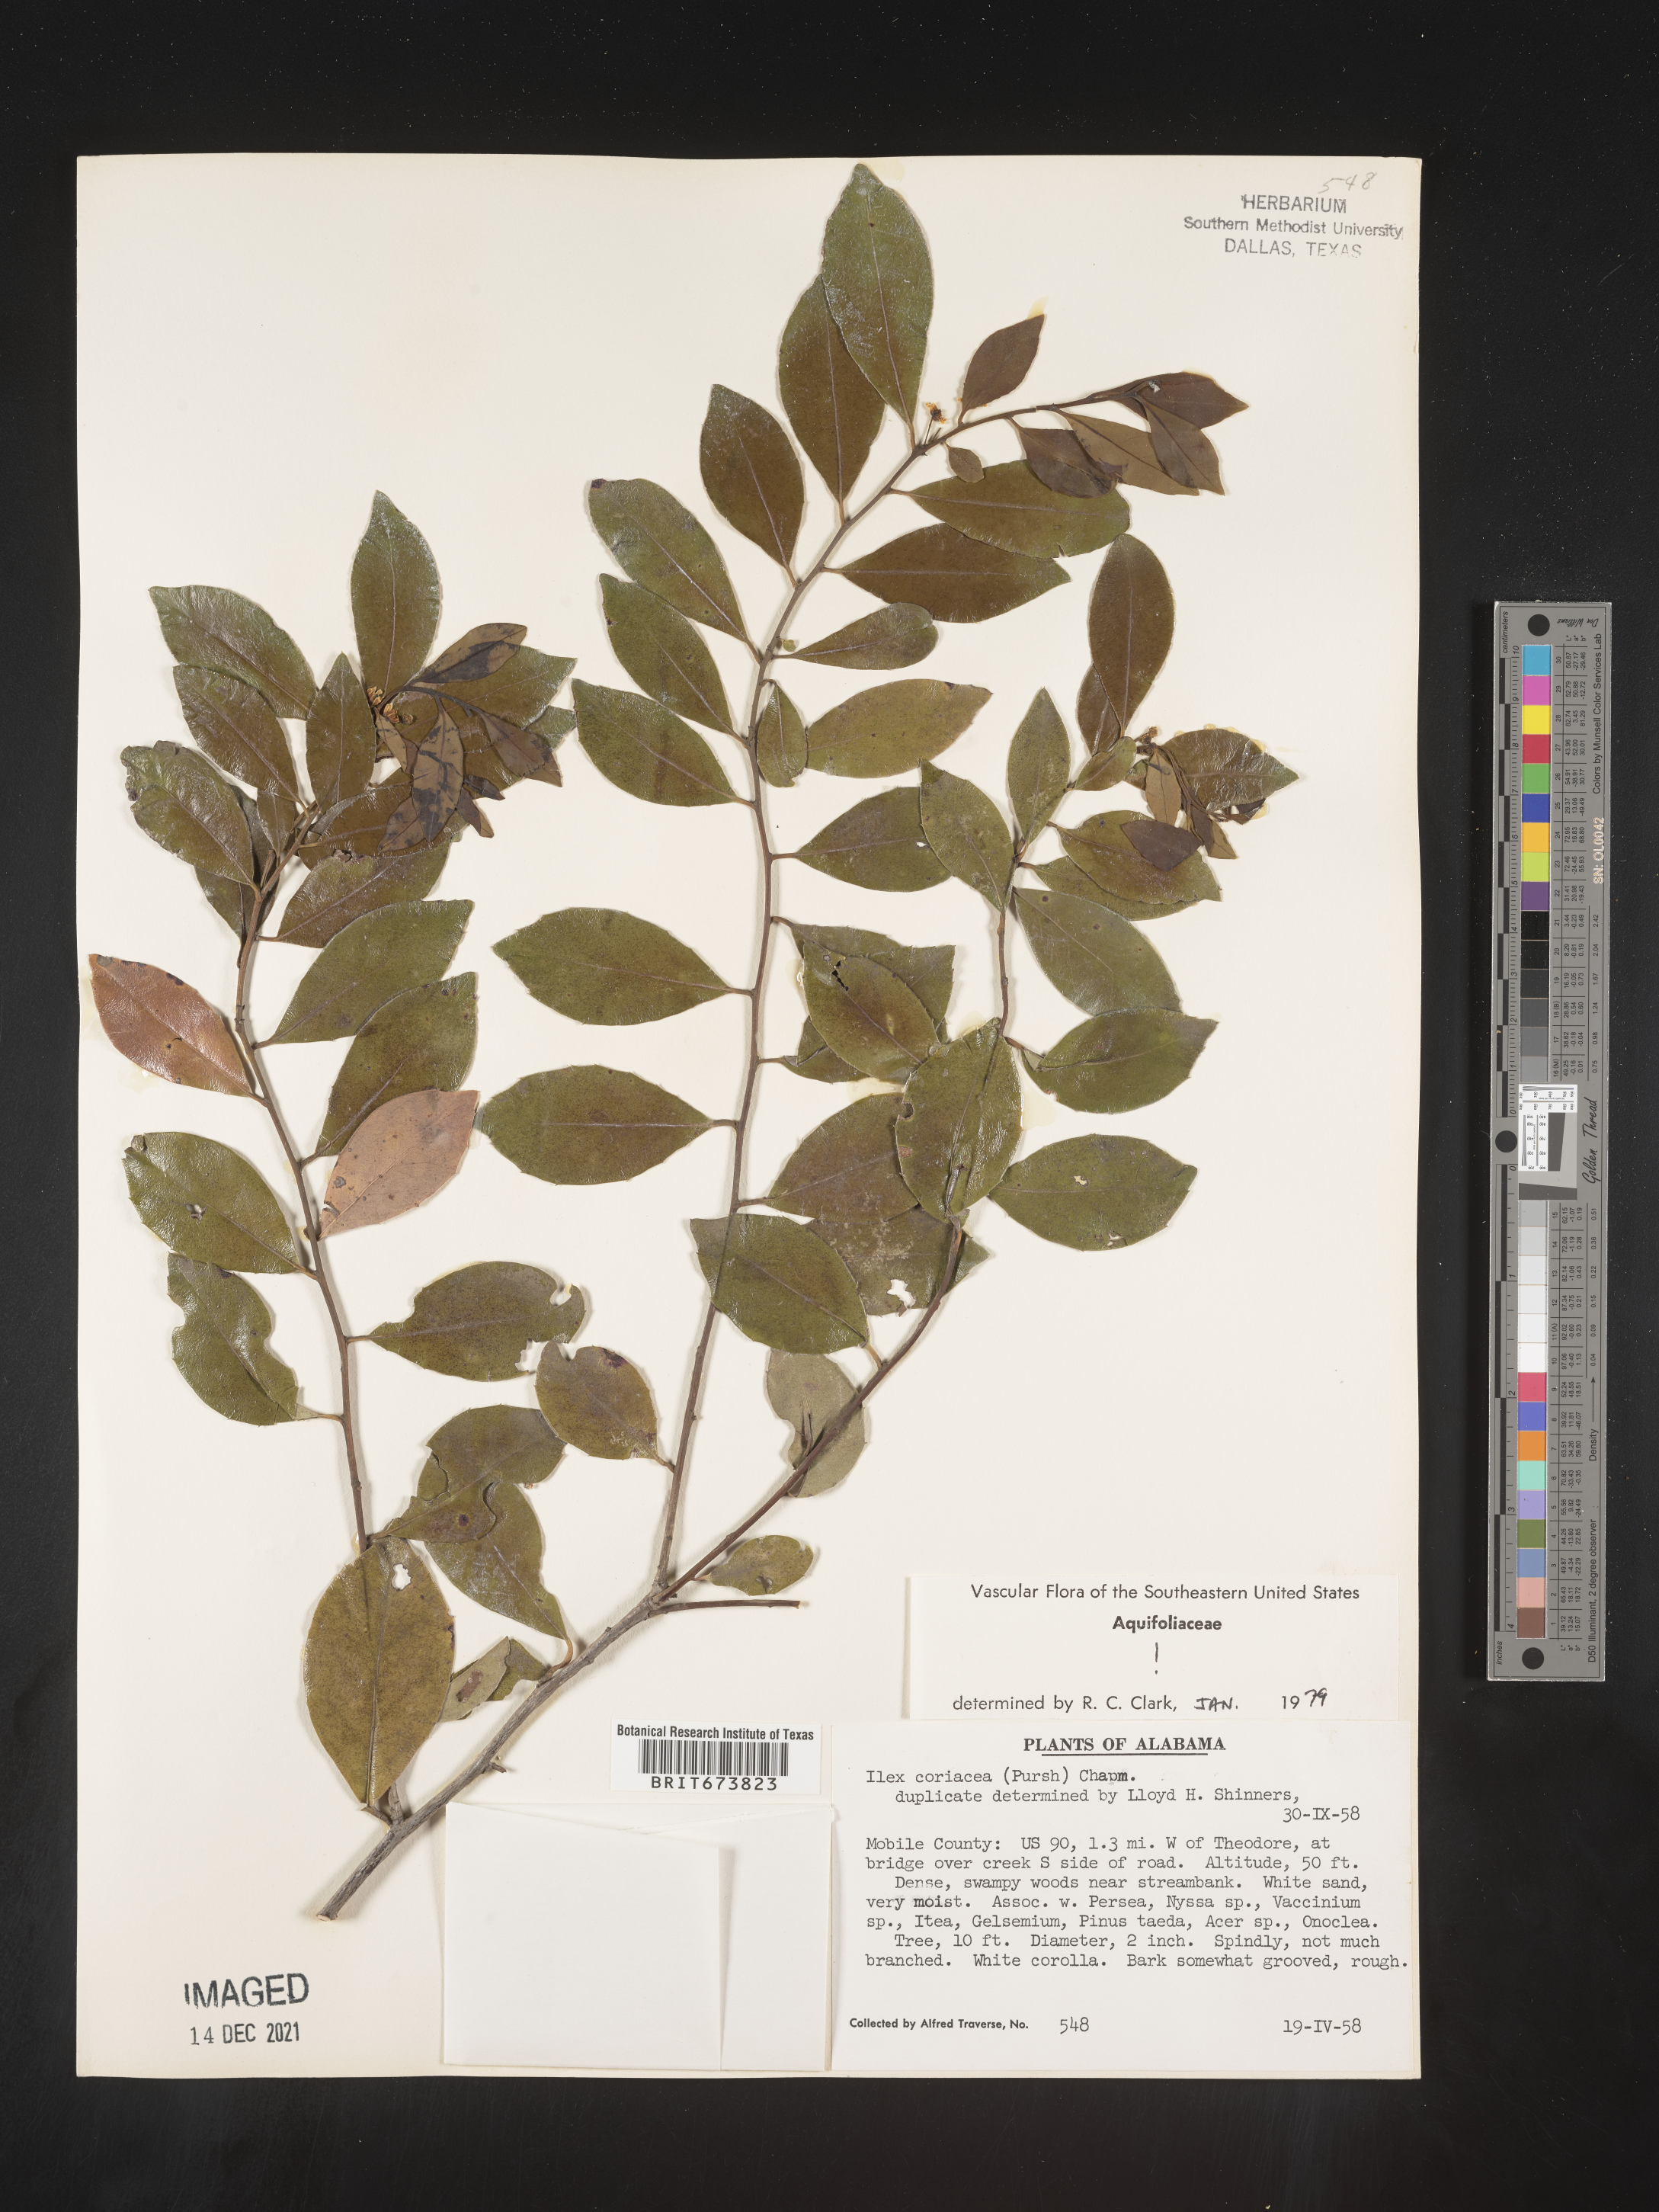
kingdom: Plantae
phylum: Tracheophyta
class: Magnoliopsida
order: Aquifoliales
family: Aquifoliaceae
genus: Ilex
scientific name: Ilex coriacea
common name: Sweet gallberry
